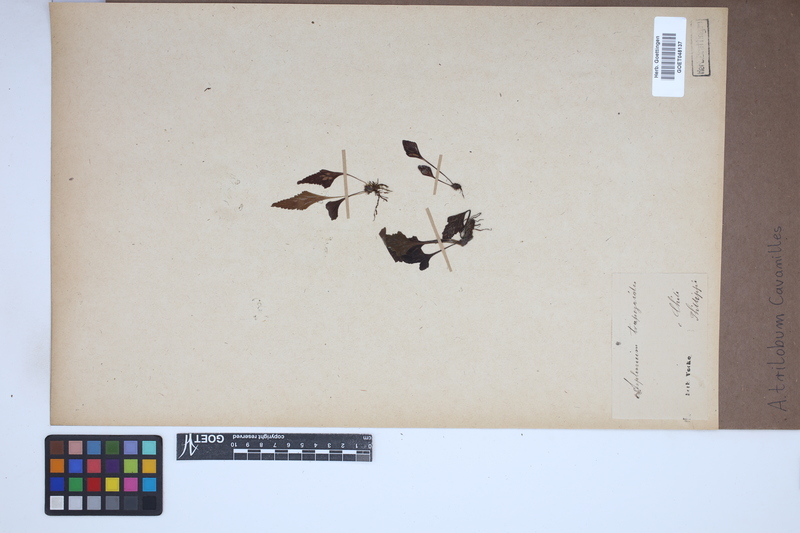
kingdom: Plantae
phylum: Tracheophyta
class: Polypodiopsida
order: Polypodiales
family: Aspleniaceae
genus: Asplenium
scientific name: Asplenium trilobum
